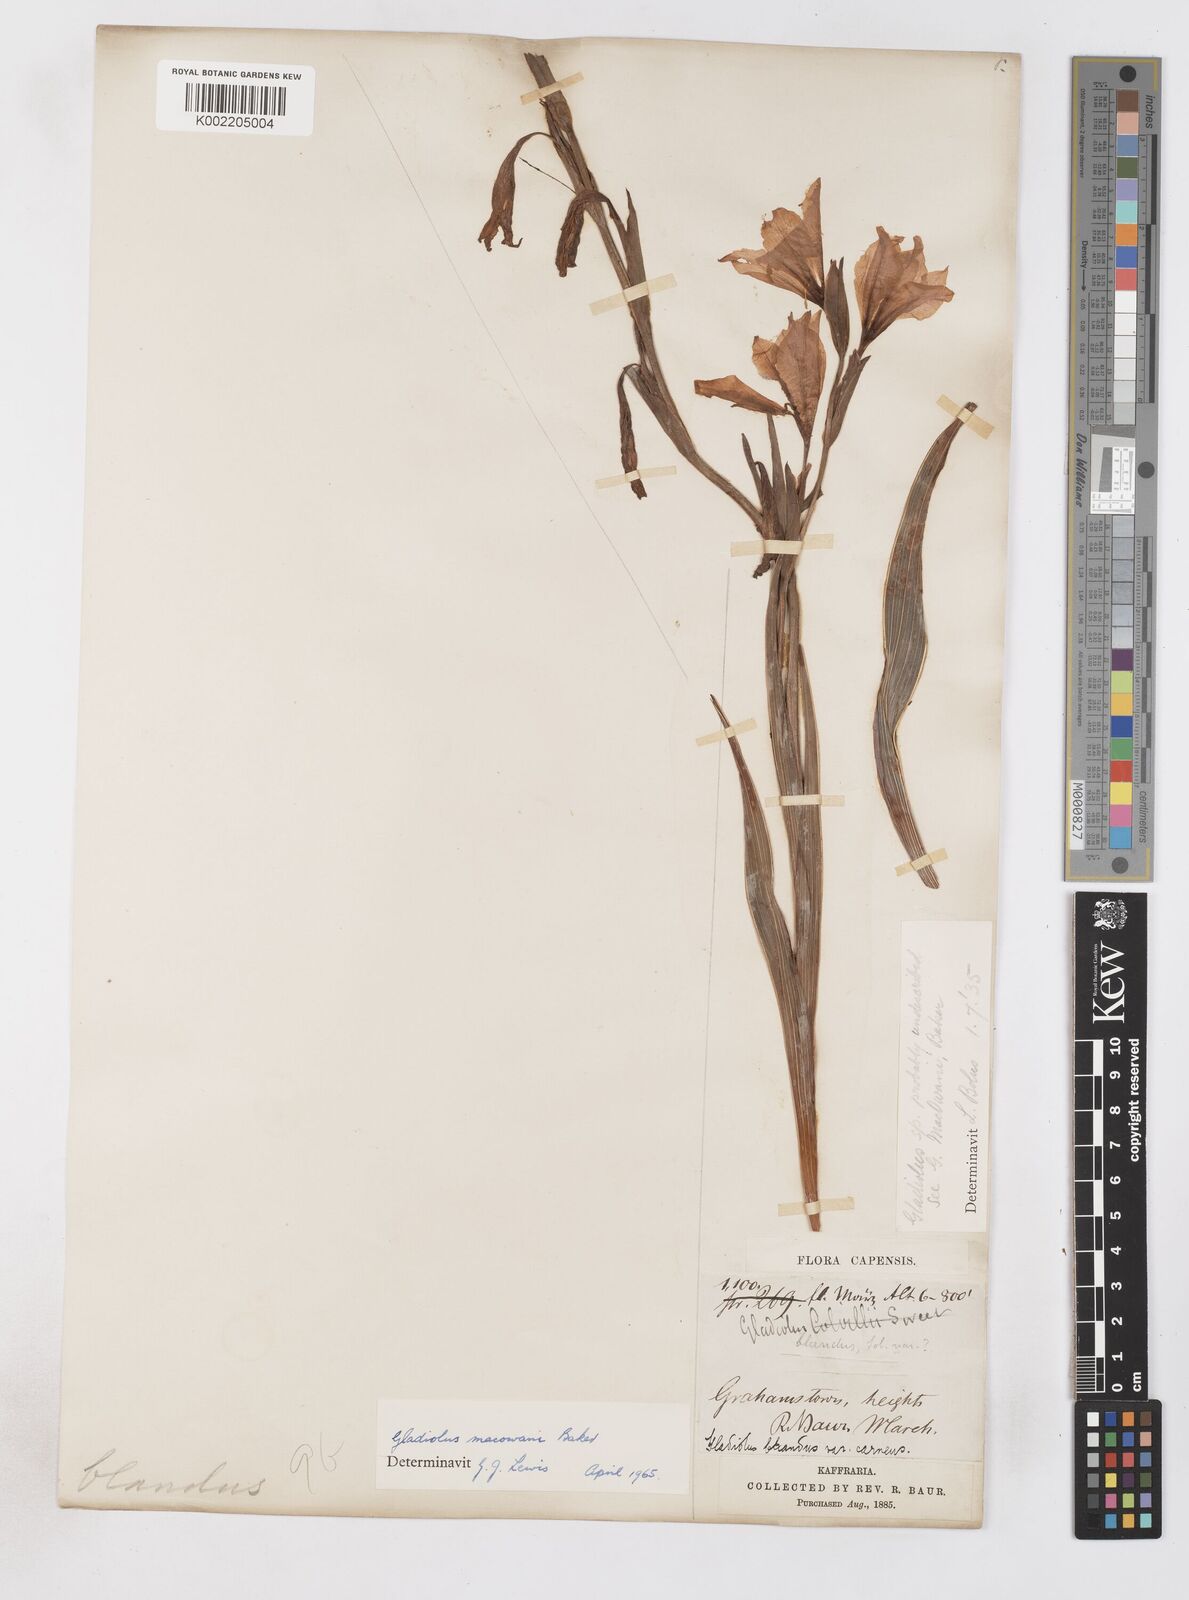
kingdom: Plantae
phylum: Tracheophyta
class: Liliopsida
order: Asparagales
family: Iridaceae
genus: Gladiolus
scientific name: Gladiolus ochroleucus
